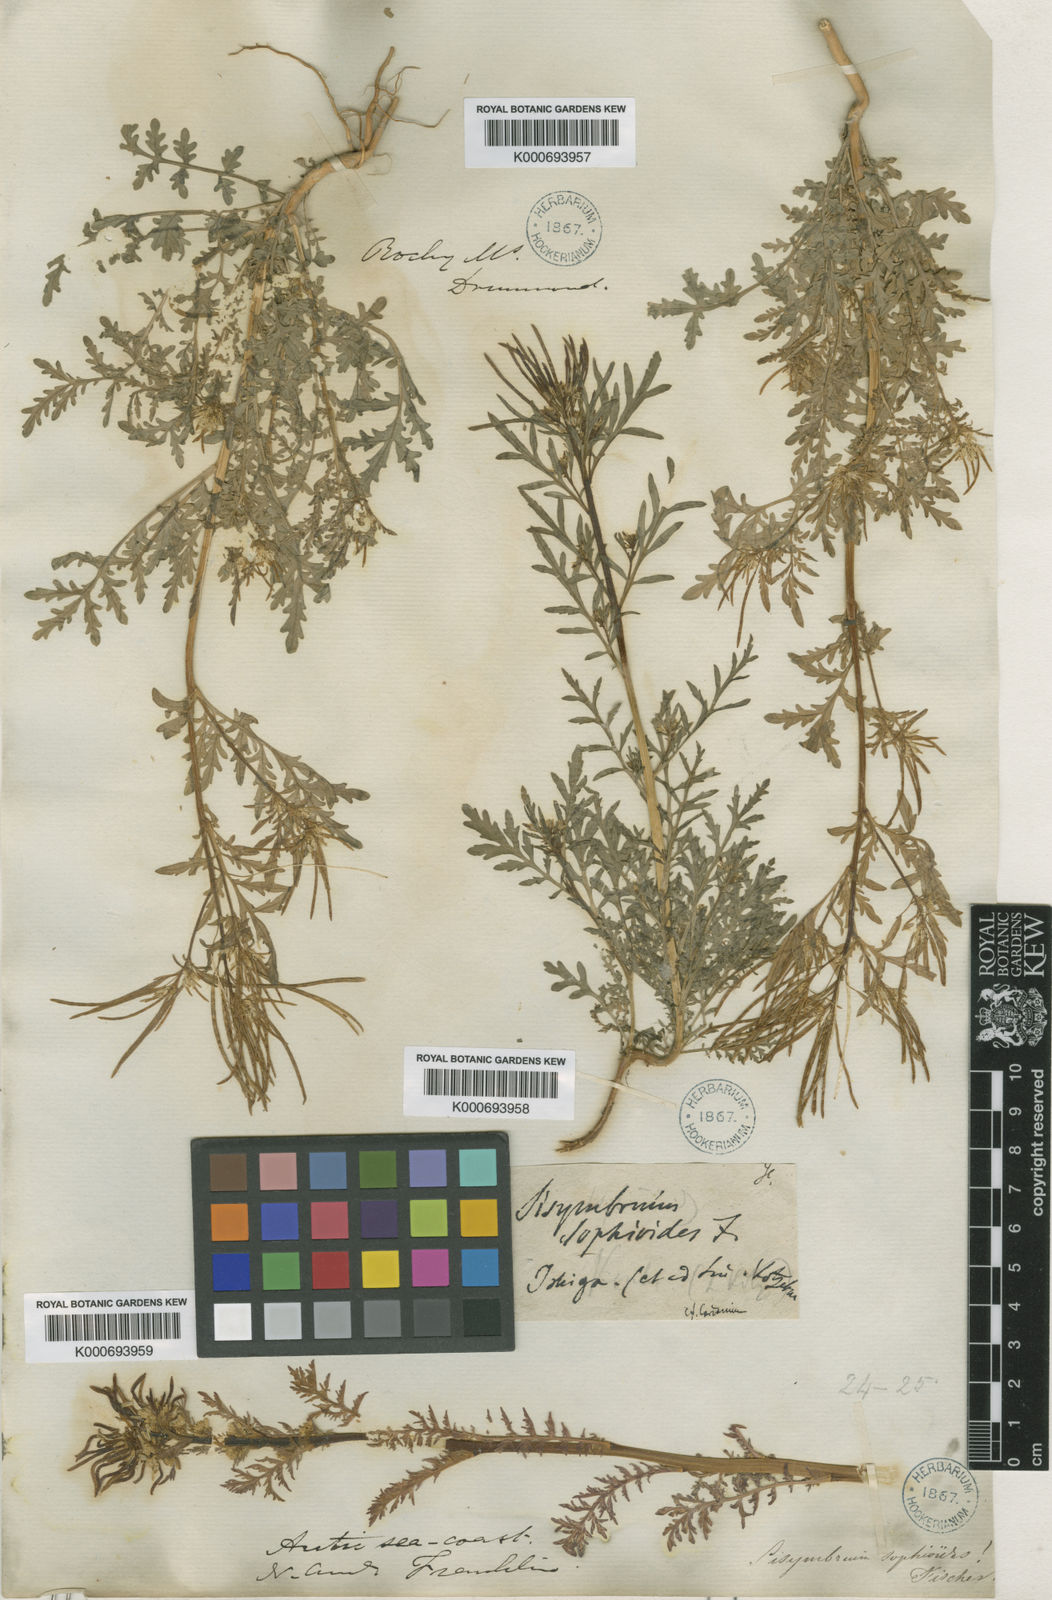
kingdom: Plantae
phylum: Tracheophyta
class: Magnoliopsida
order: Brassicales
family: Brassicaceae
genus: Descurainia
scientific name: Descurainia sophia
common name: Flixweed
